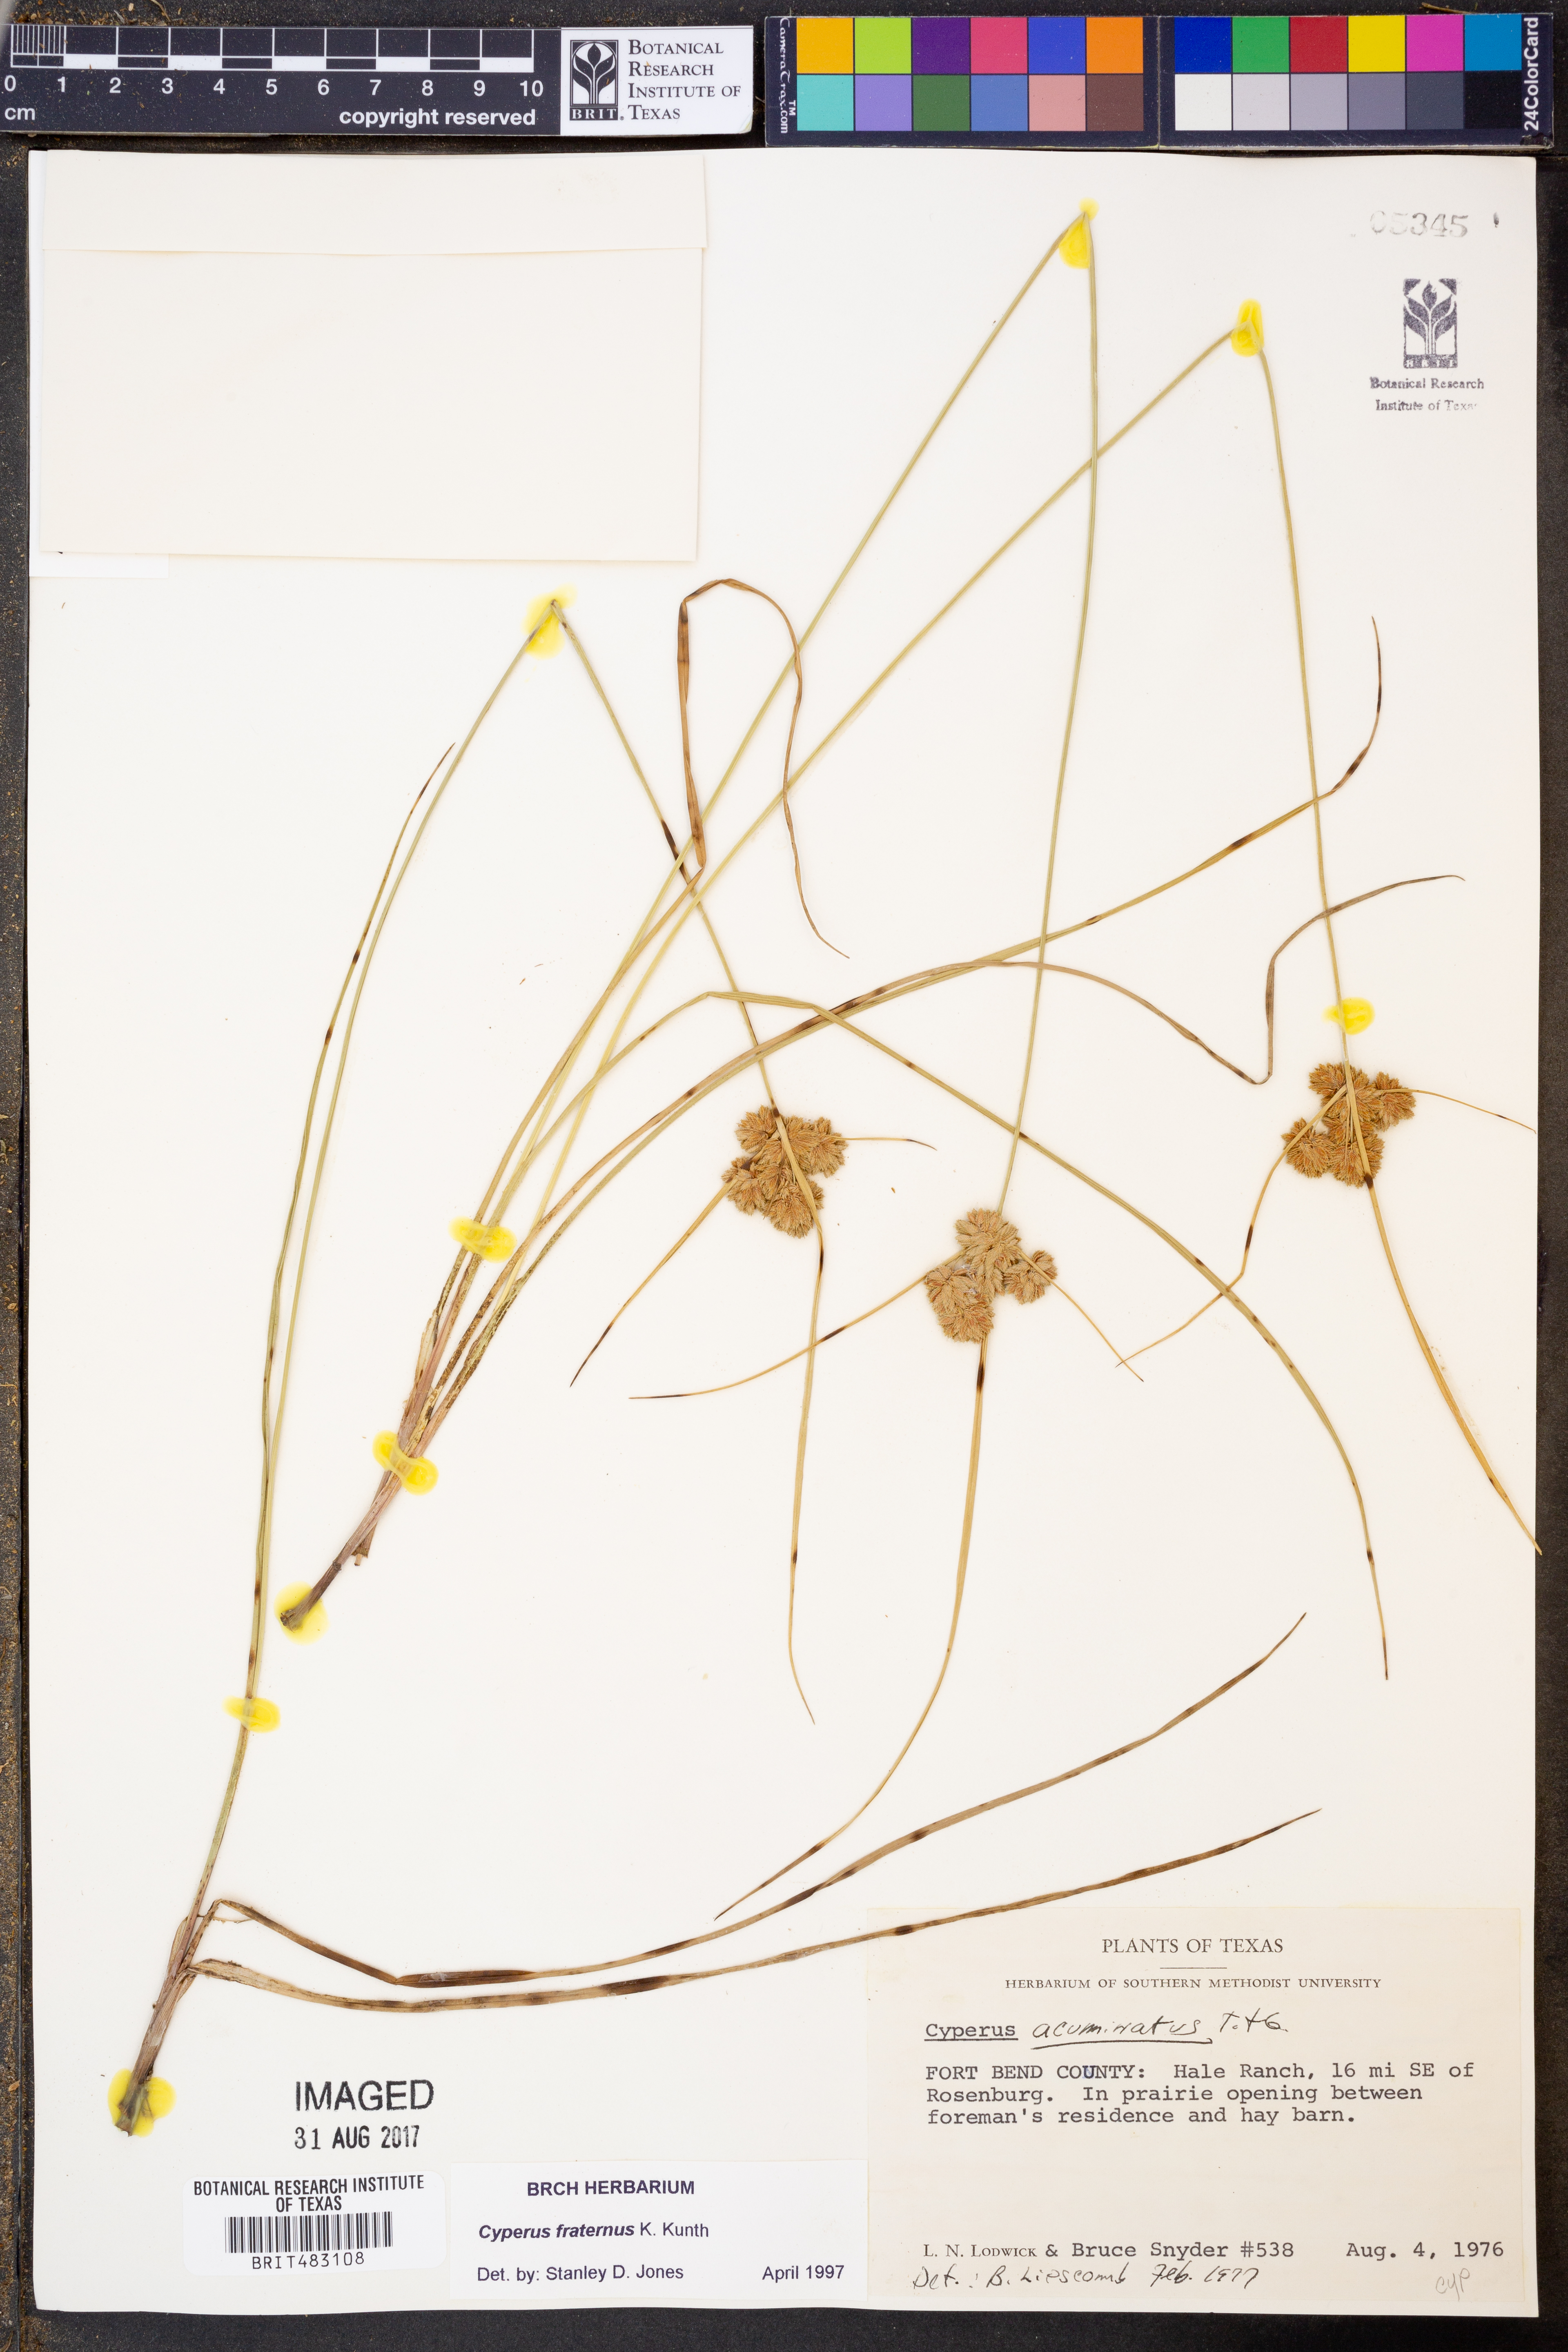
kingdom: Plantae
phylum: Tracheophyta
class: Liliopsida
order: Poales
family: Cyperaceae
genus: Cyperus
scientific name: Cyperus fraternus
